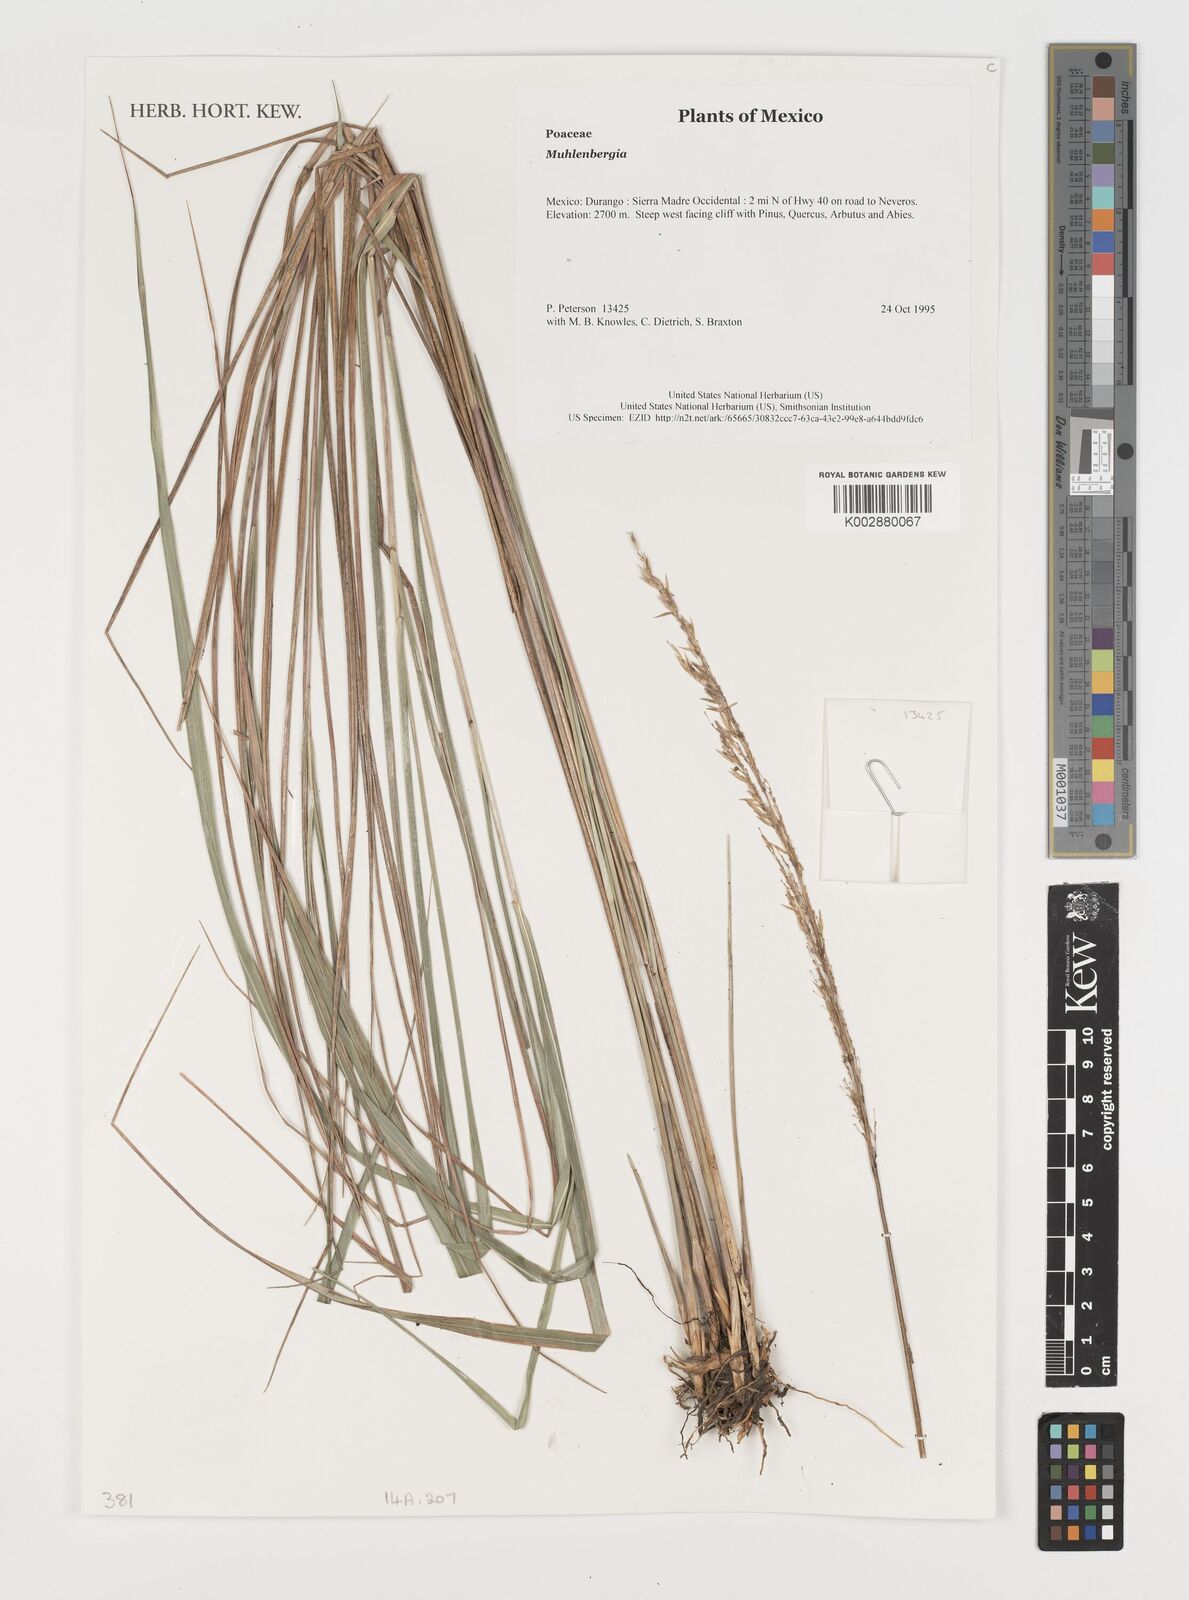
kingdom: Plantae
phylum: Tracheophyta
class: Liliopsida
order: Poales
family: Poaceae
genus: Muhlenbergia
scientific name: Muhlenbergia
